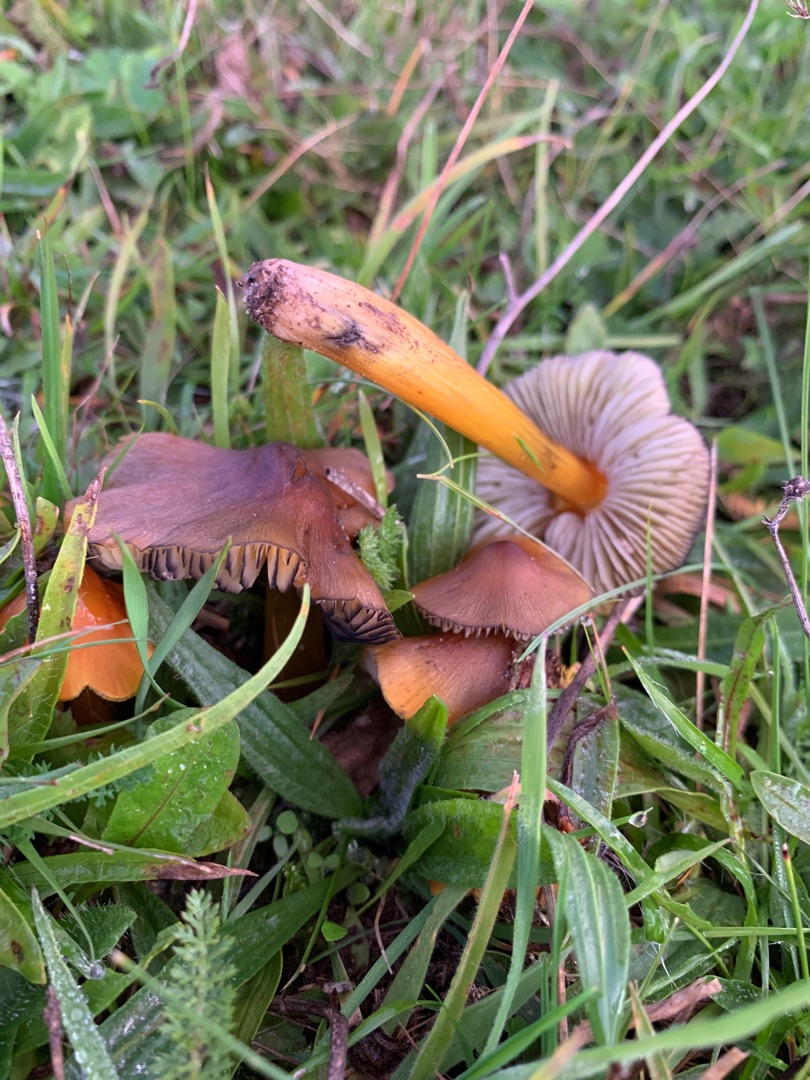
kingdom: Fungi
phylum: Basidiomycota
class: Agaricomycetes
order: Agaricales
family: Hygrophoraceae
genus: Hygrocybe
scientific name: Hygrocybe conica
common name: Kegle-vokshat
